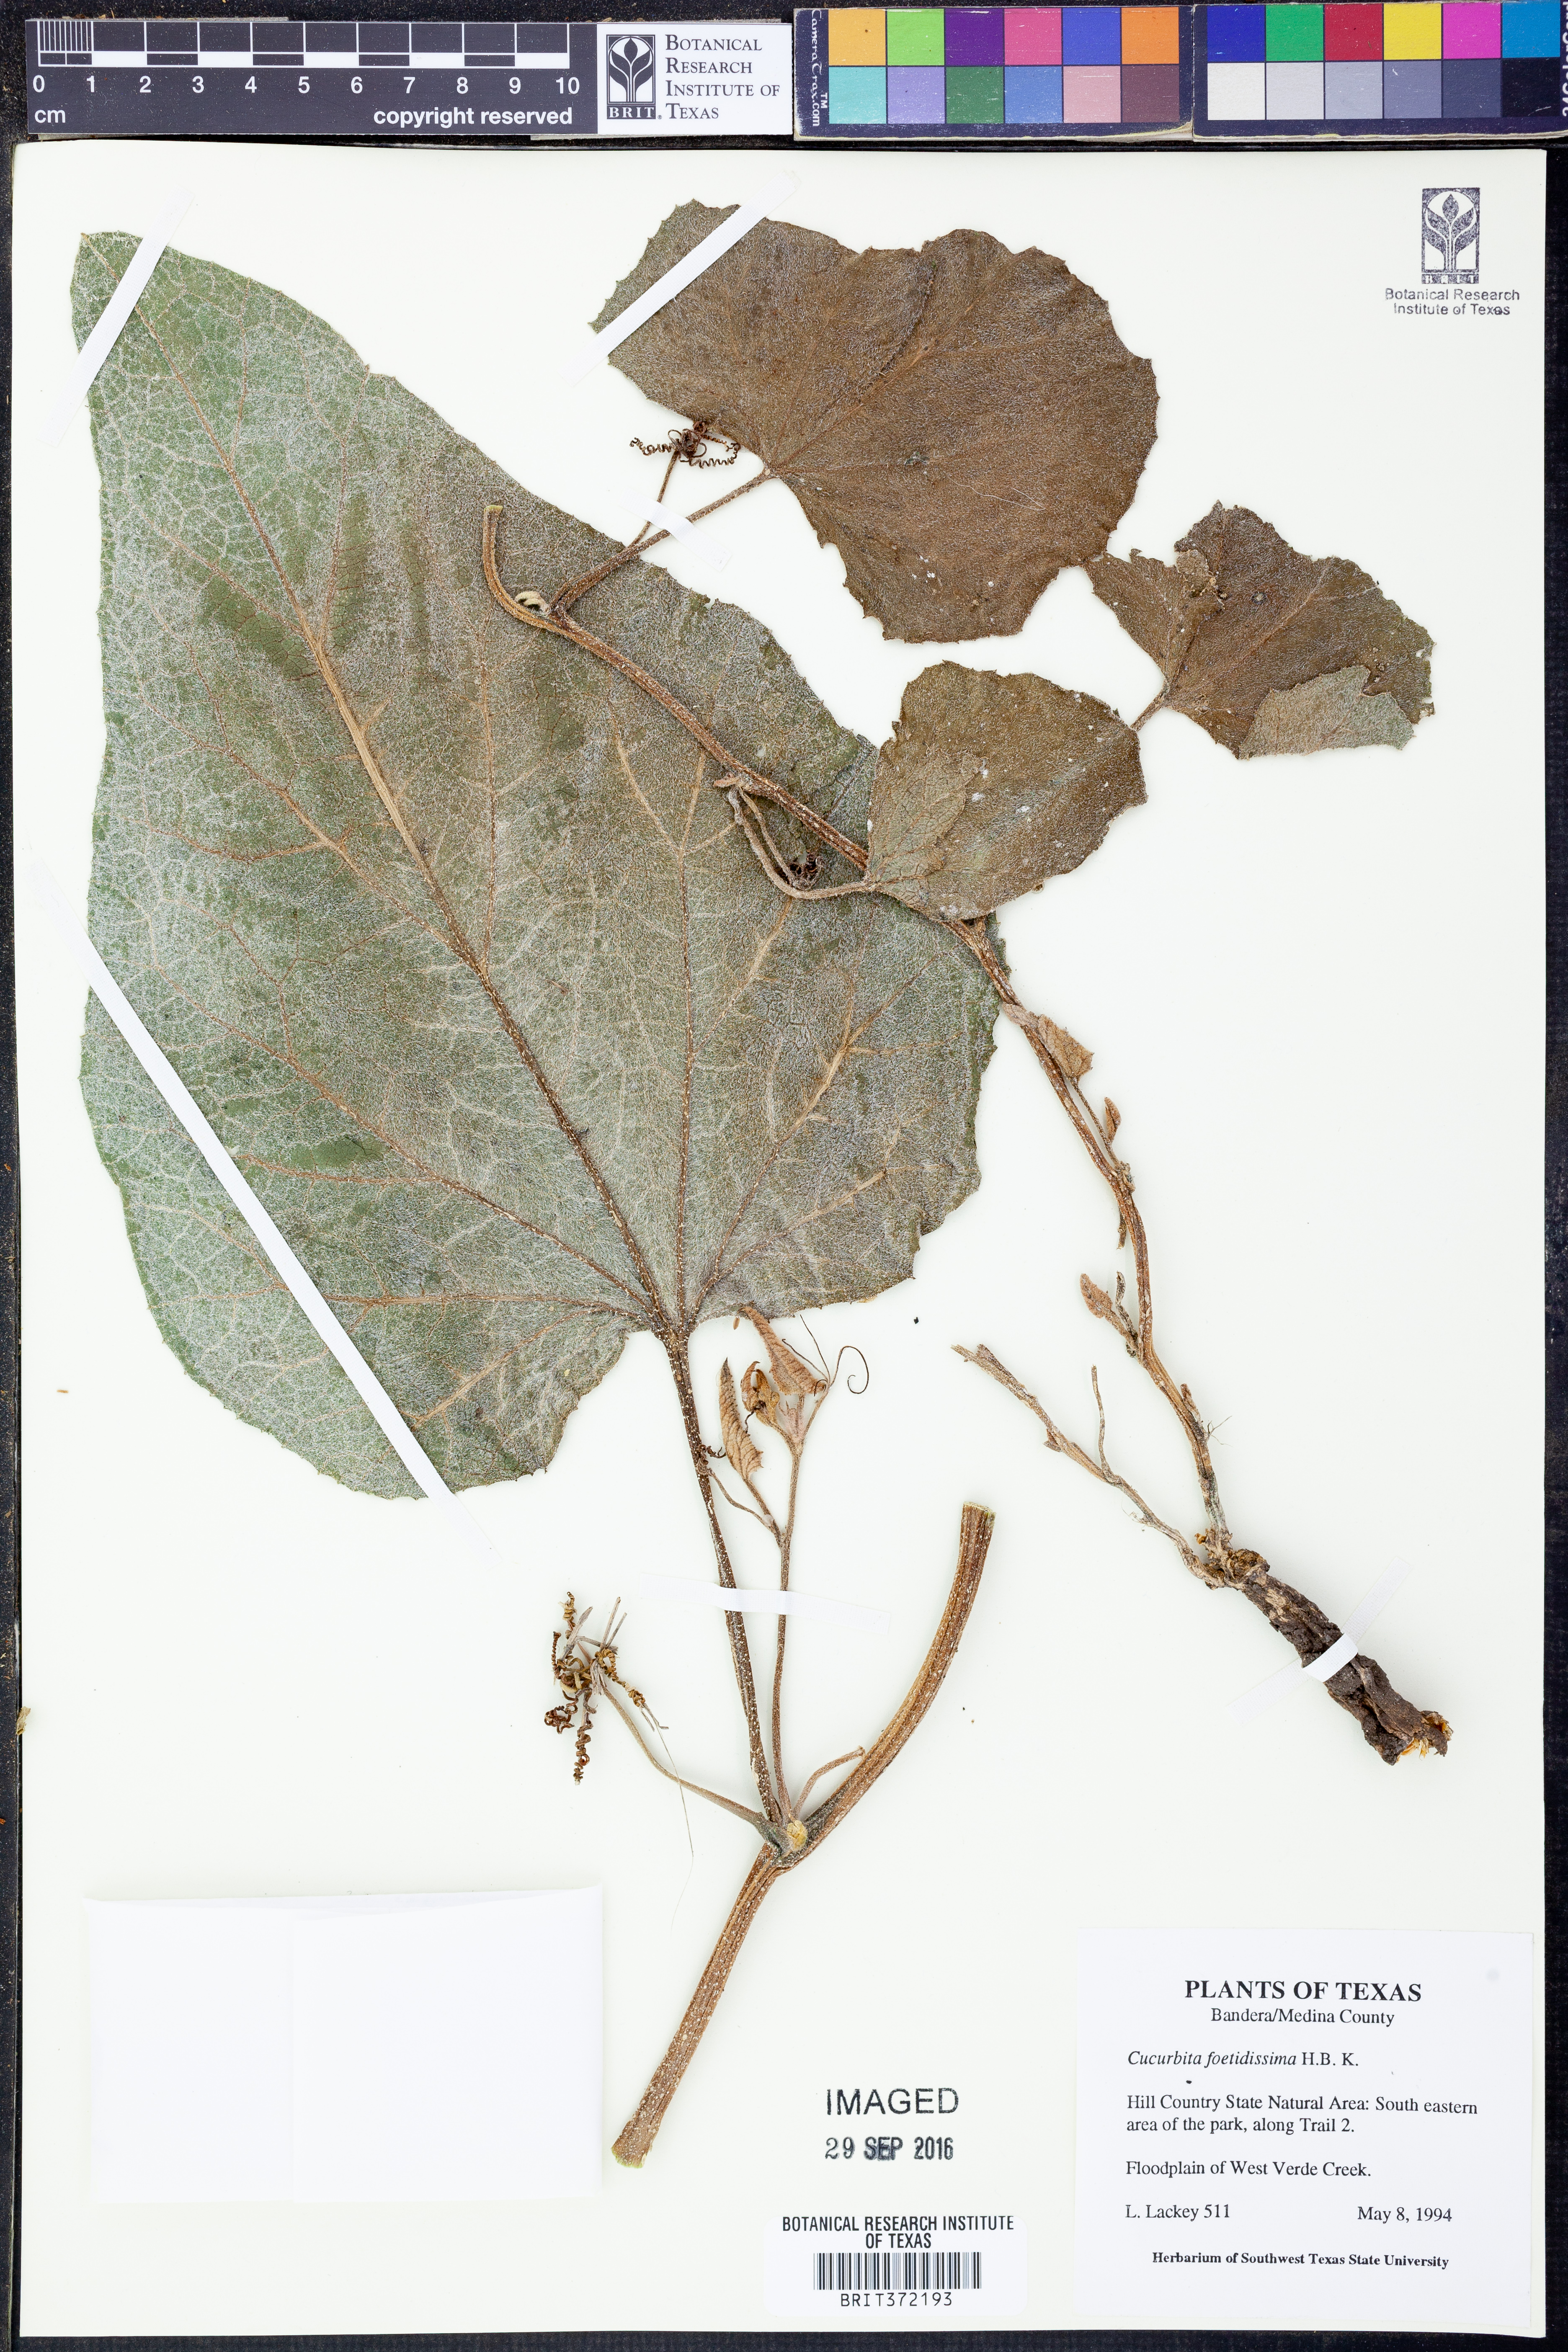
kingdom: Plantae
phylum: Tracheophyta
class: Magnoliopsida
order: Cucurbitales
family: Cucurbitaceae
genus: Cucurbita
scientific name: Cucurbita foetidissima
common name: Buffalo gourd
